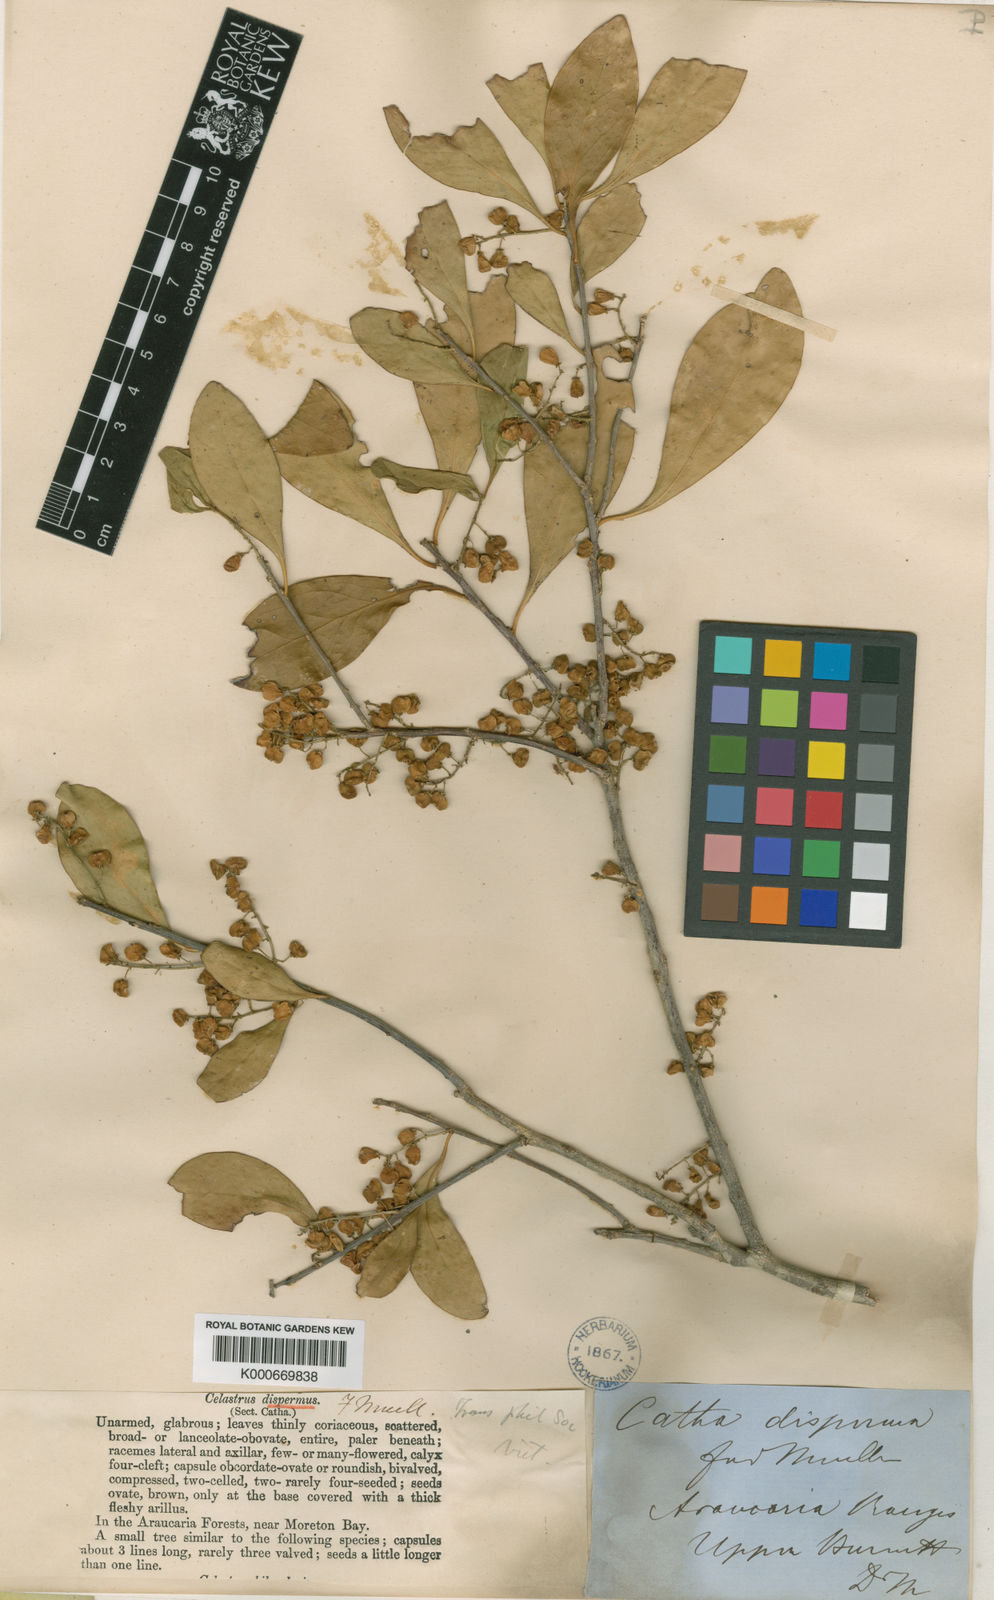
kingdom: Plantae
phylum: Tracheophyta
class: Magnoliopsida
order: Celastrales
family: Celastraceae
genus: Denhamia
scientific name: Denhamia disperma
